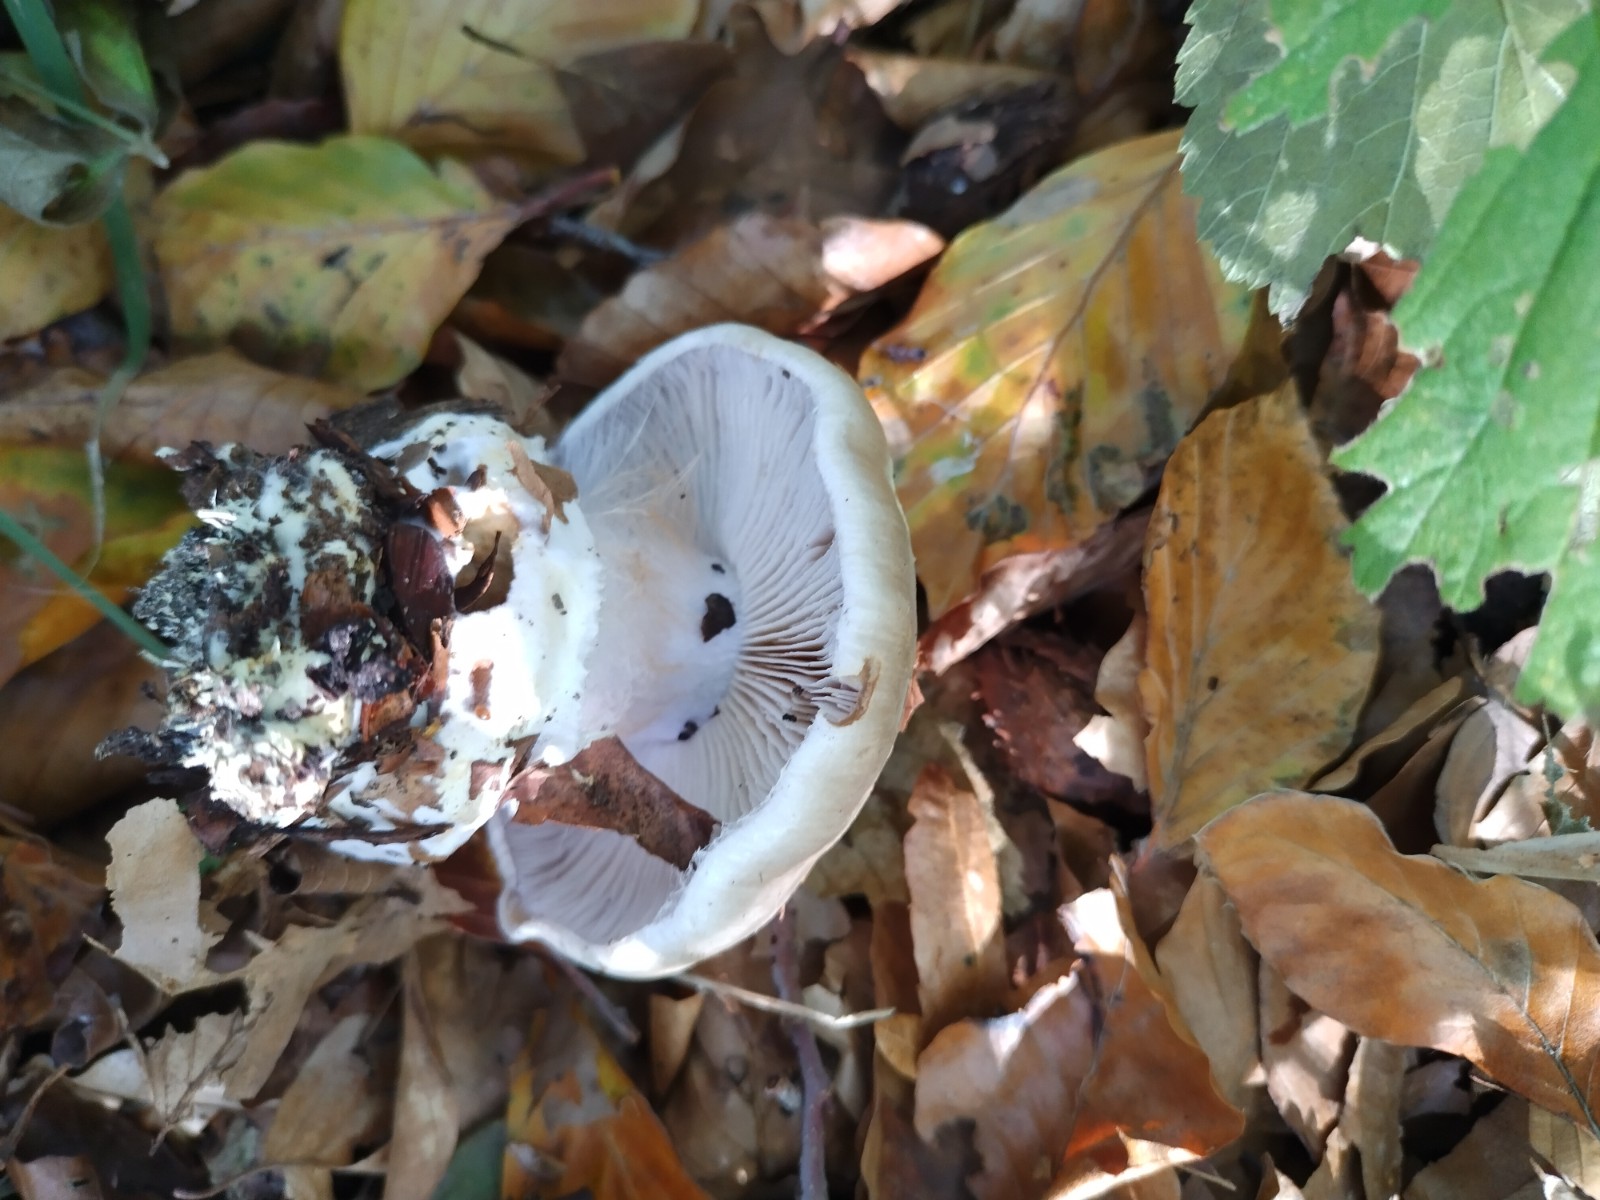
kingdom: Fungi
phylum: Basidiomycota
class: Agaricomycetes
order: Agaricales
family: Cortinariaceae
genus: Cortinarius
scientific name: Cortinarius foetens
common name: stribet slørhat
